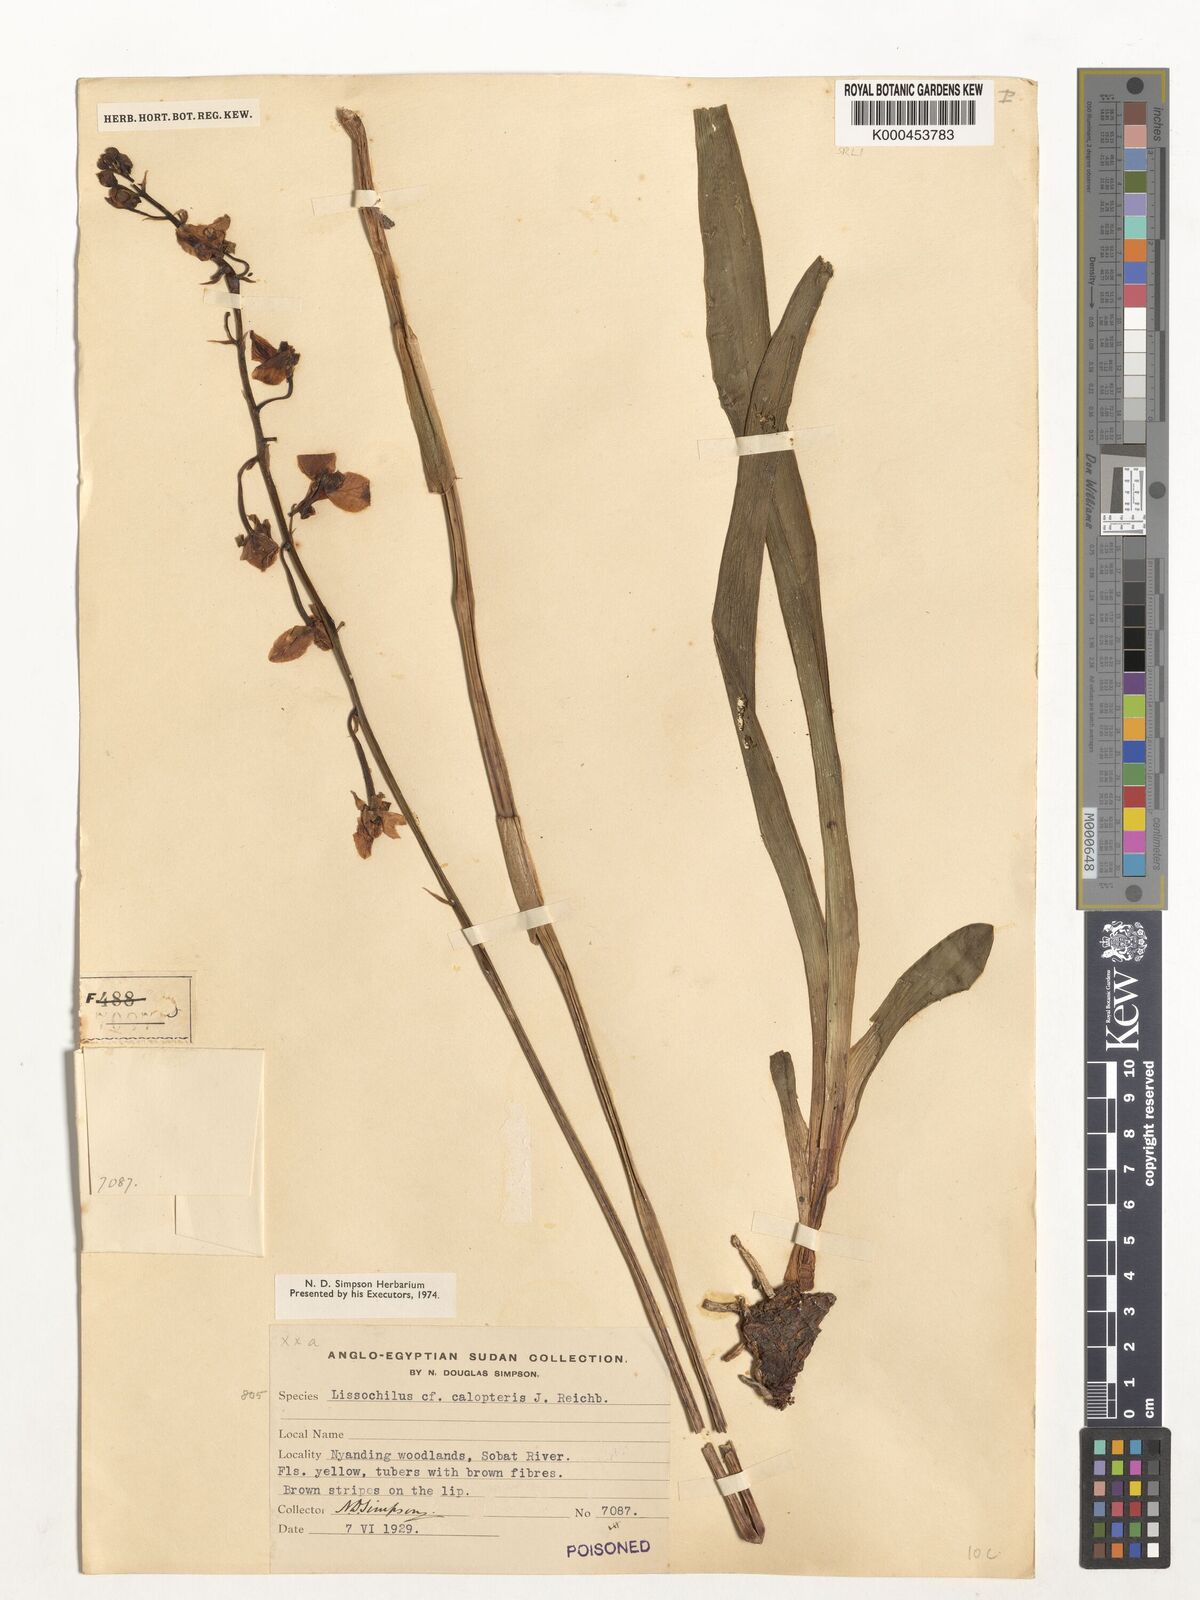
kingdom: Plantae
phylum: Tracheophyta
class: Liliopsida
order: Asparagales
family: Orchidaceae
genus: Eulophia
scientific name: Eulophia speciosa
